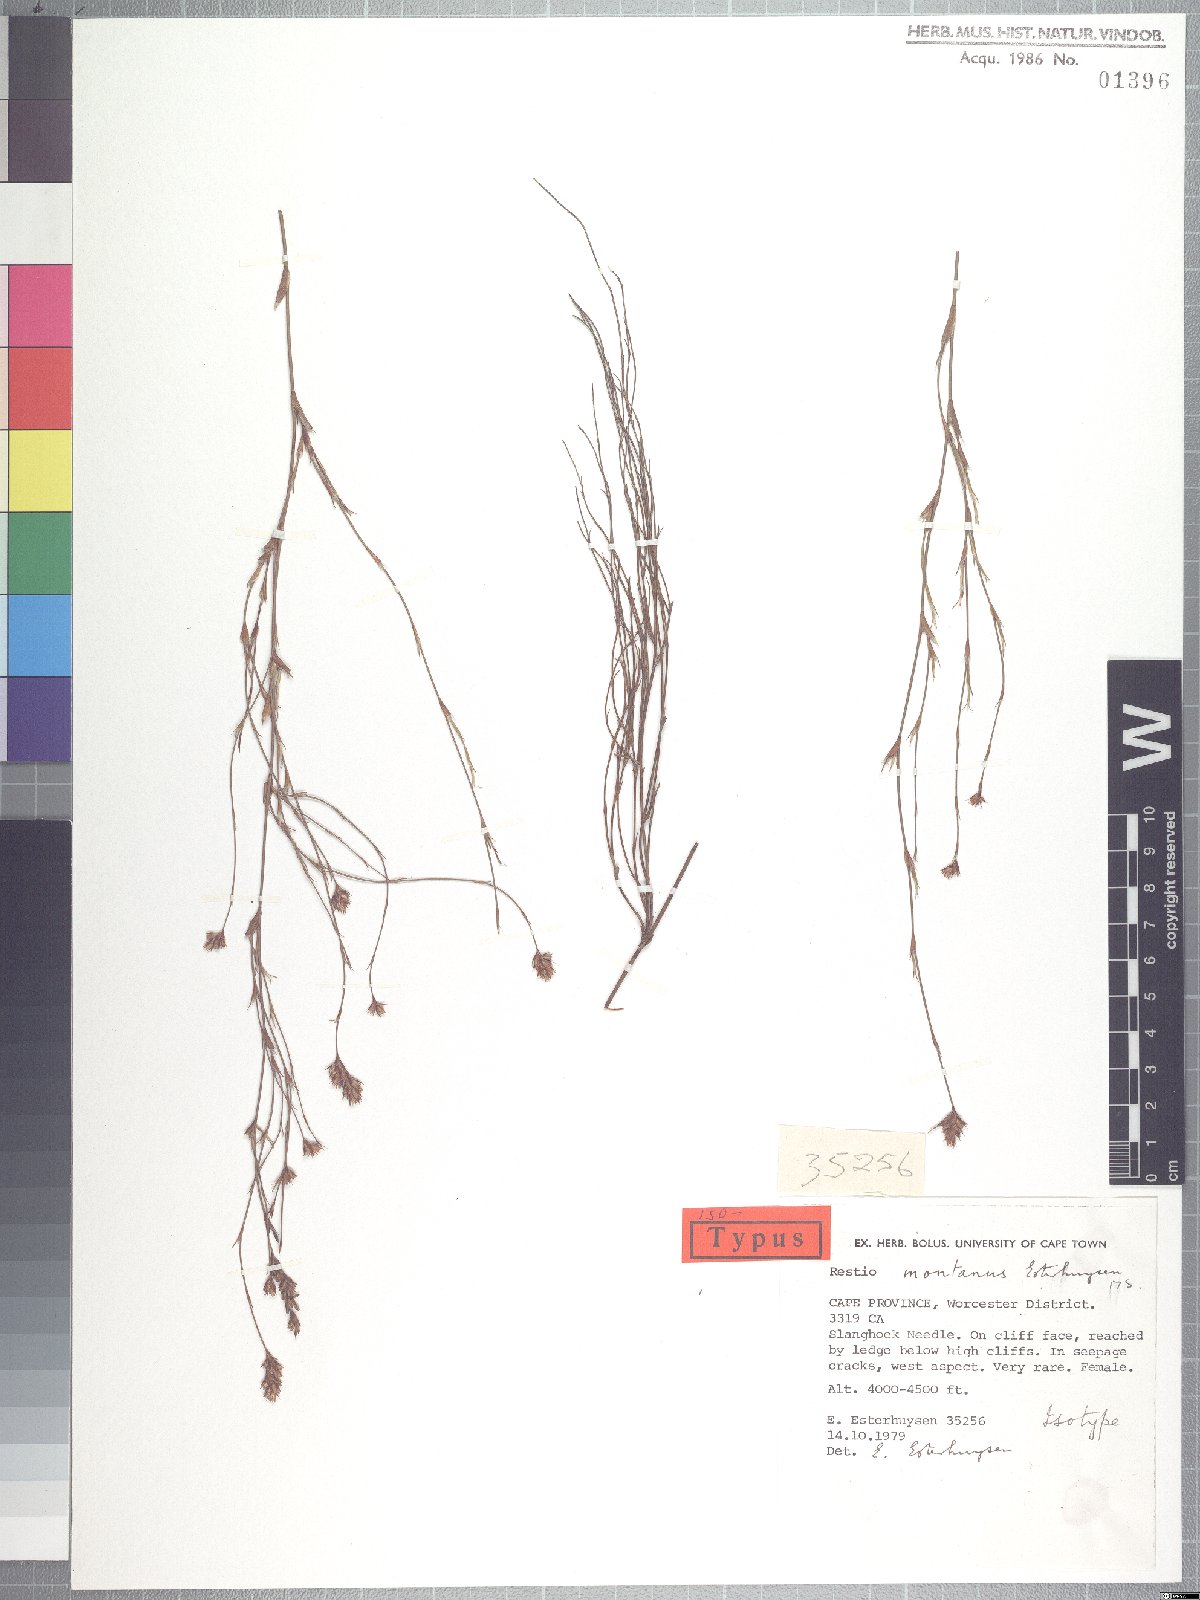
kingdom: Plantae
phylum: Tracheophyta
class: Liliopsida
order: Poales
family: Restionaceae
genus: Restio
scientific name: Restio montanus
